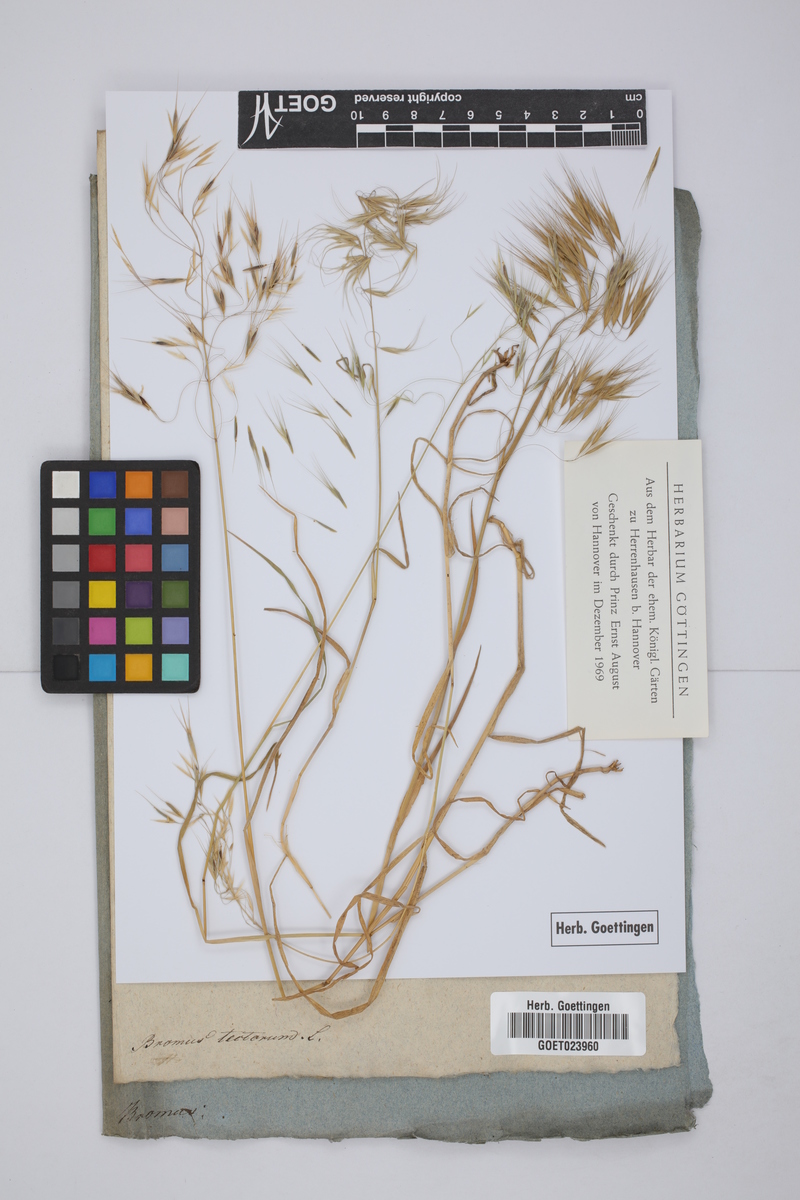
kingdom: Plantae
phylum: Tracheophyta
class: Liliopsida
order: Poales
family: Poaceae
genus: Bromus
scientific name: Bromus tectorum
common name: Cheatgrass
